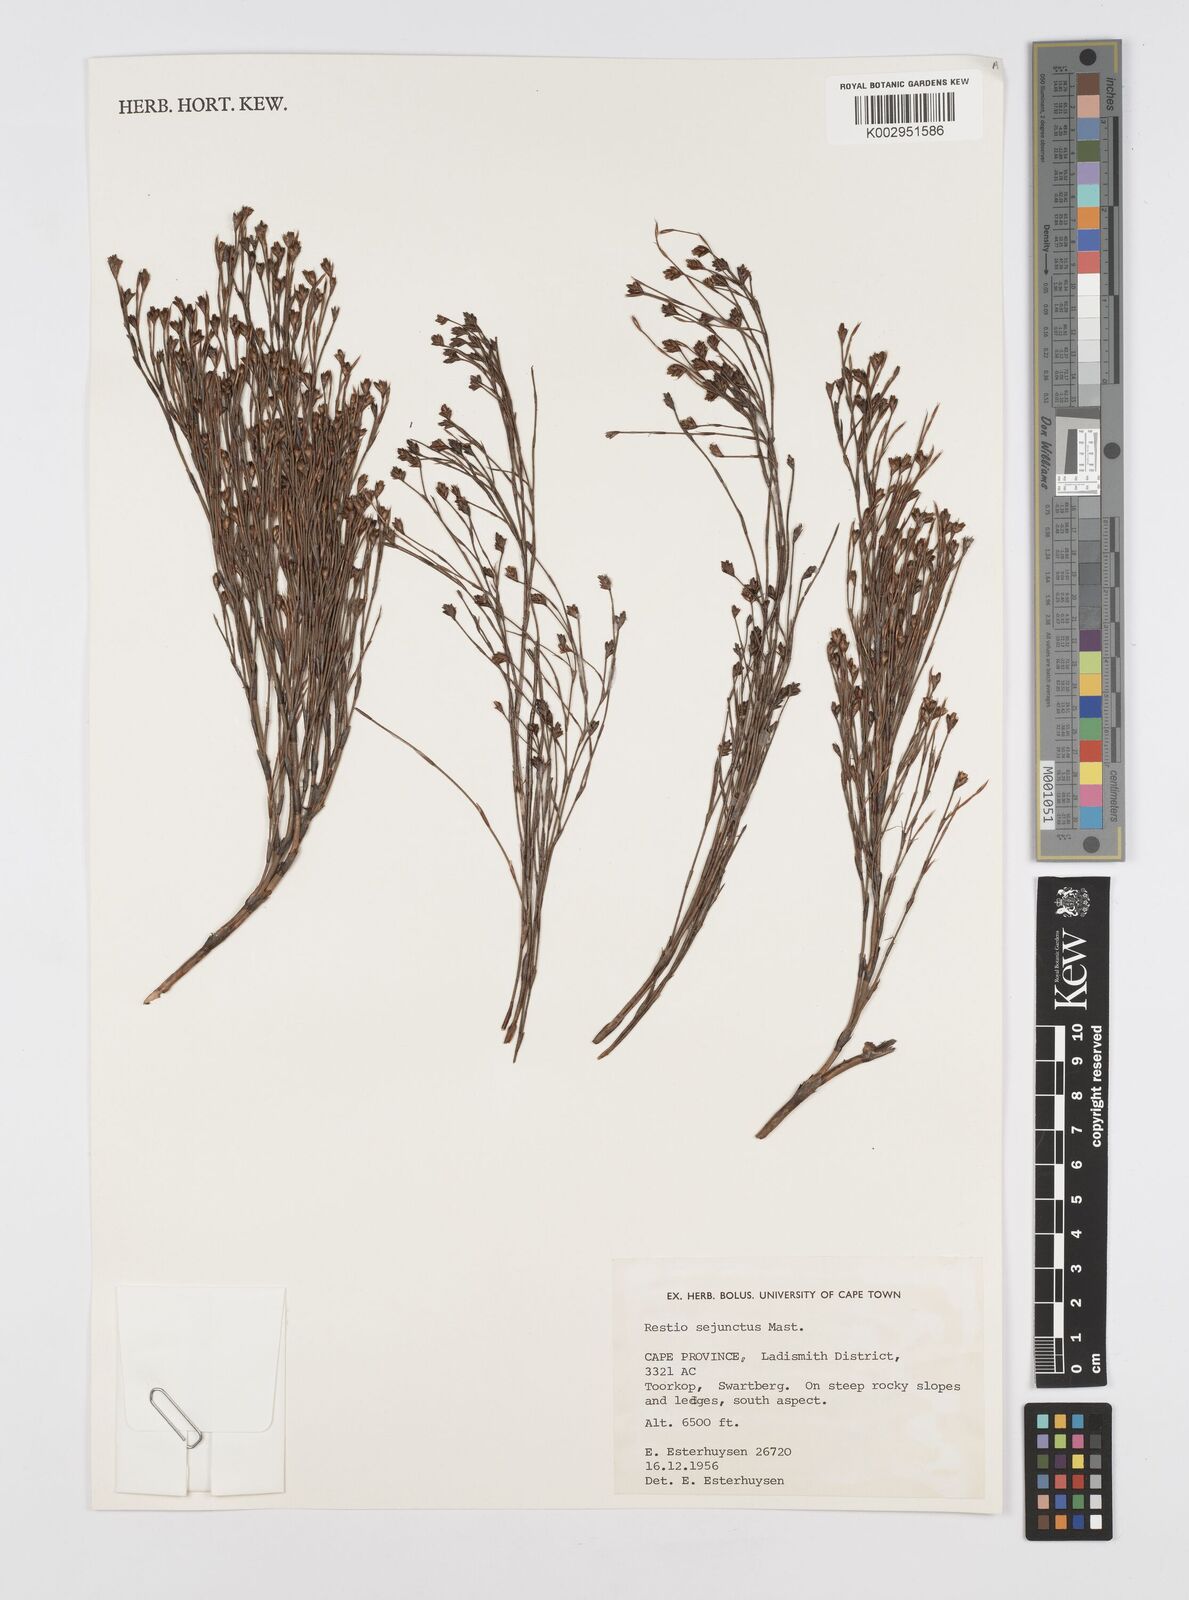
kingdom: Plantae
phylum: Tracheophyta
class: Liliopsida
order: Poales
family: Restionaceae
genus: Restio
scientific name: Restio sejunctus
